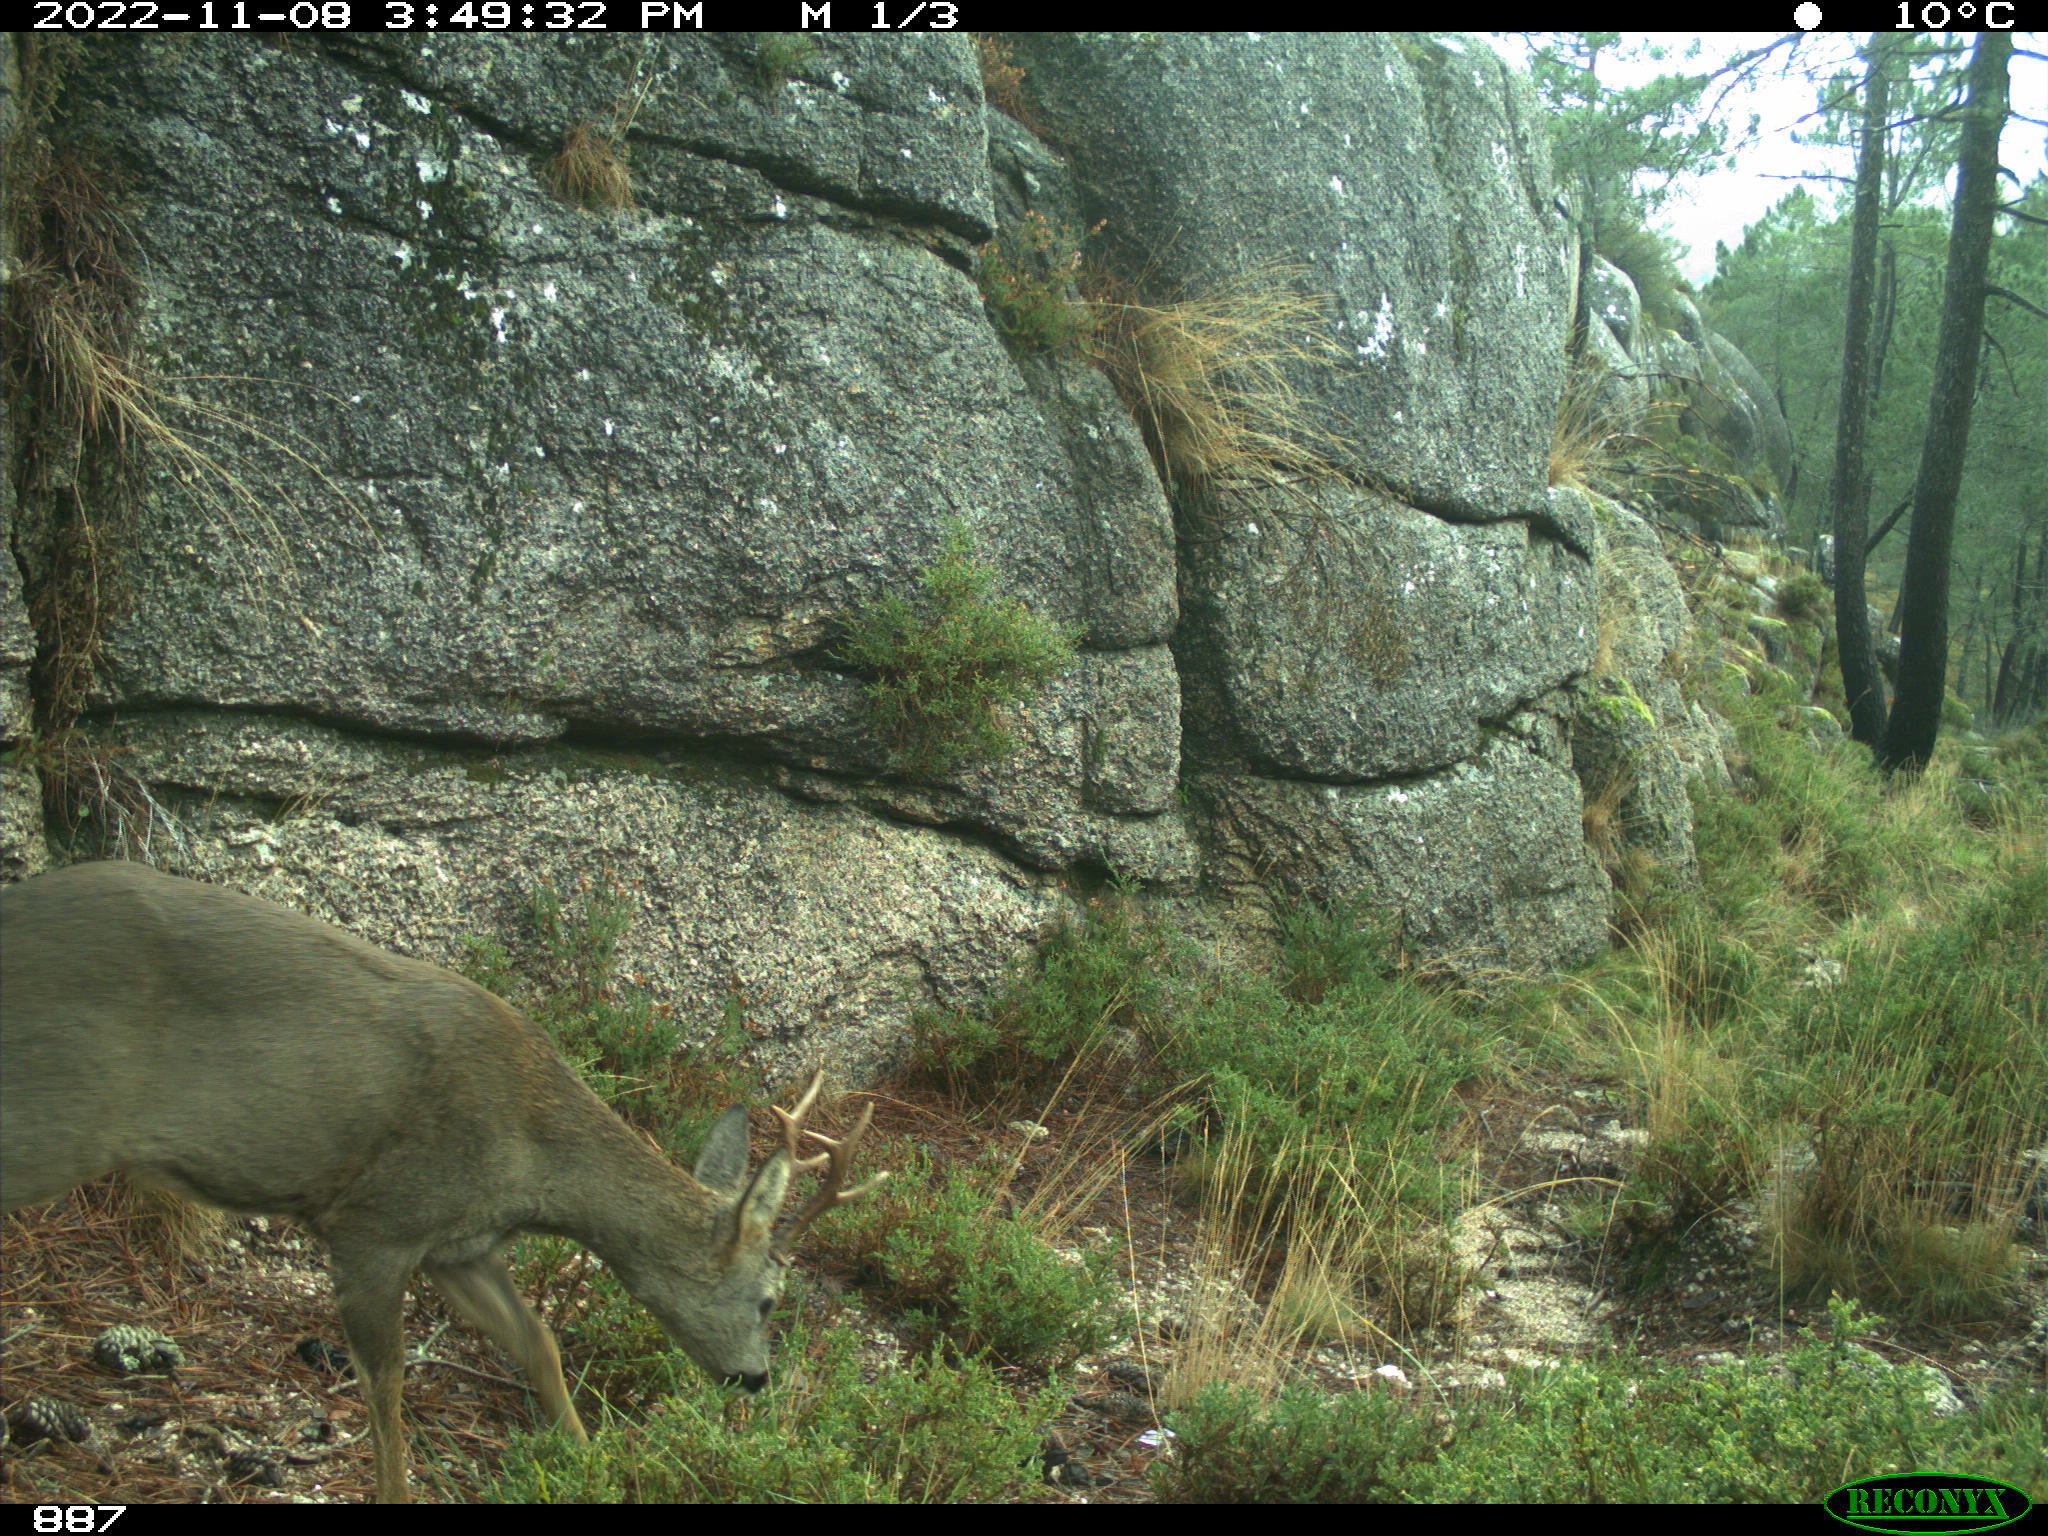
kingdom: Animalia
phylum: Chordata
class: Mammalia
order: Artiodactyla
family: Cervidae
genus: Capreolus
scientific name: Capreolus capreolus
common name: Western roe deer
